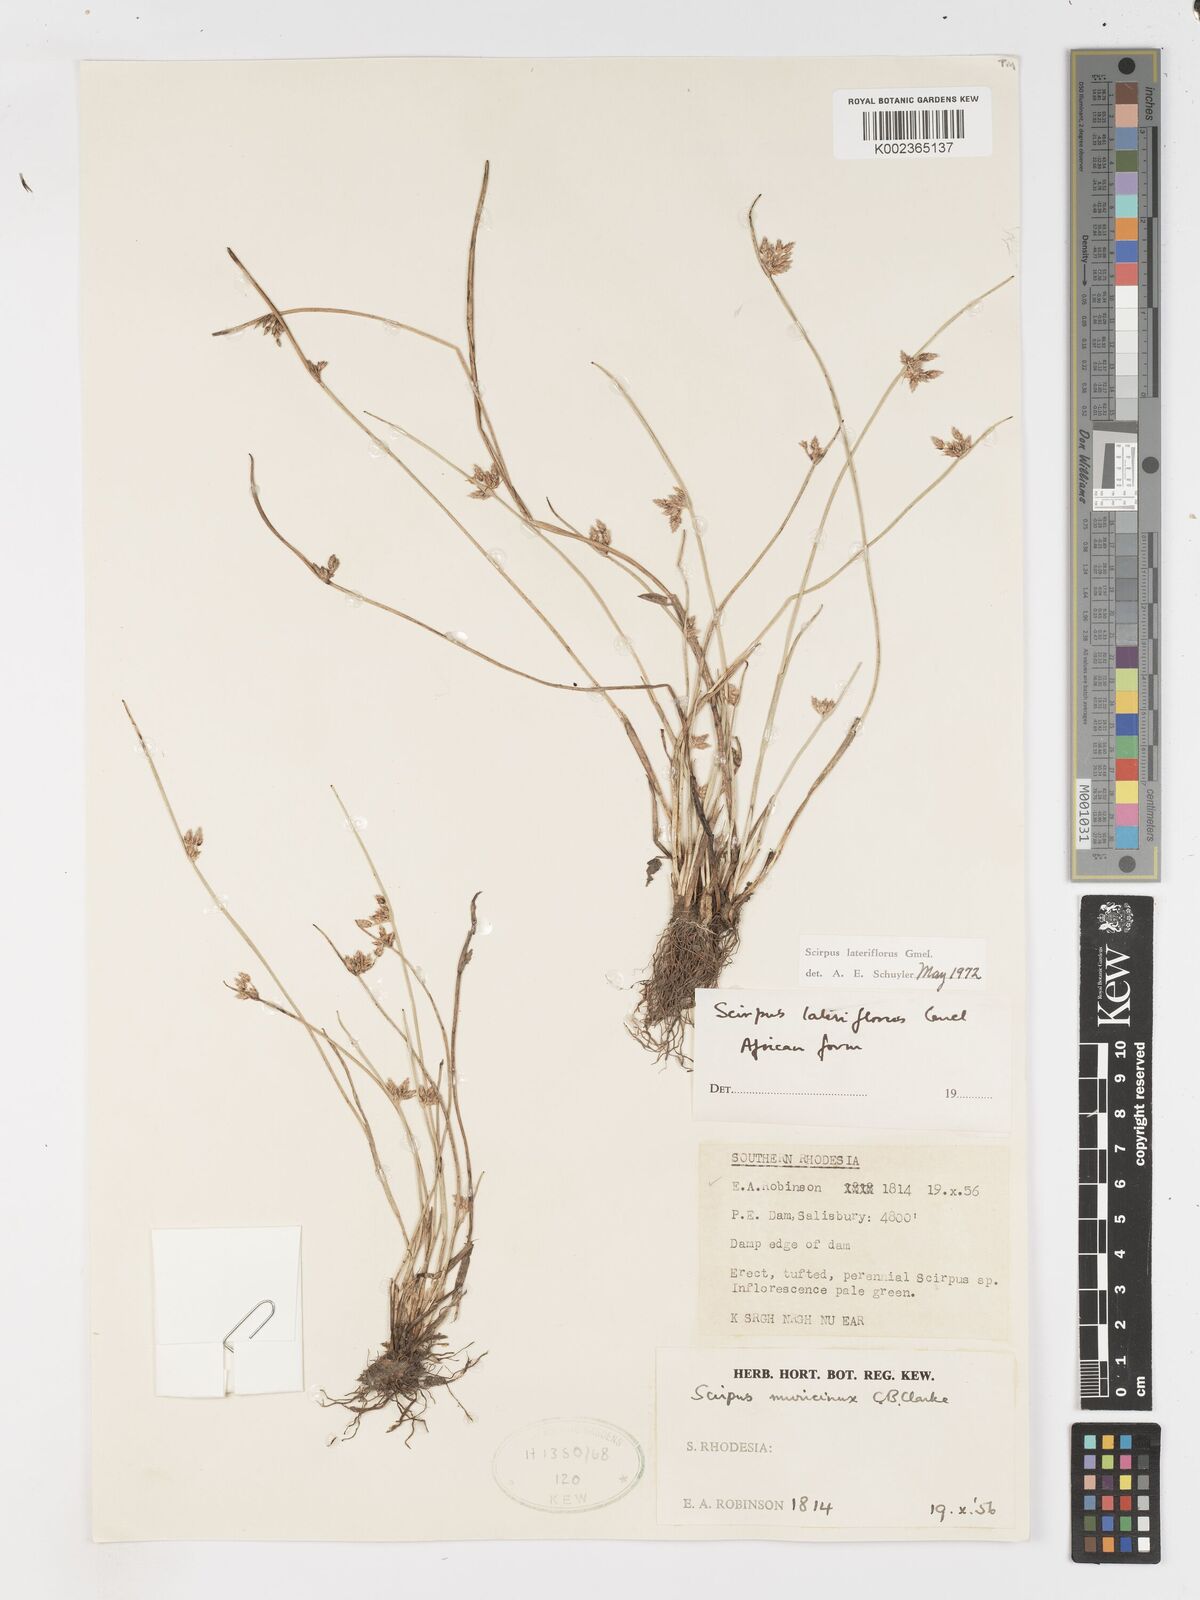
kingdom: Plantae
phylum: Tracheophyta
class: Liliopsida
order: Poales
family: Cyperaceae
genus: Schoenoplectiella
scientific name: Schoenoplectiella lateriflora
